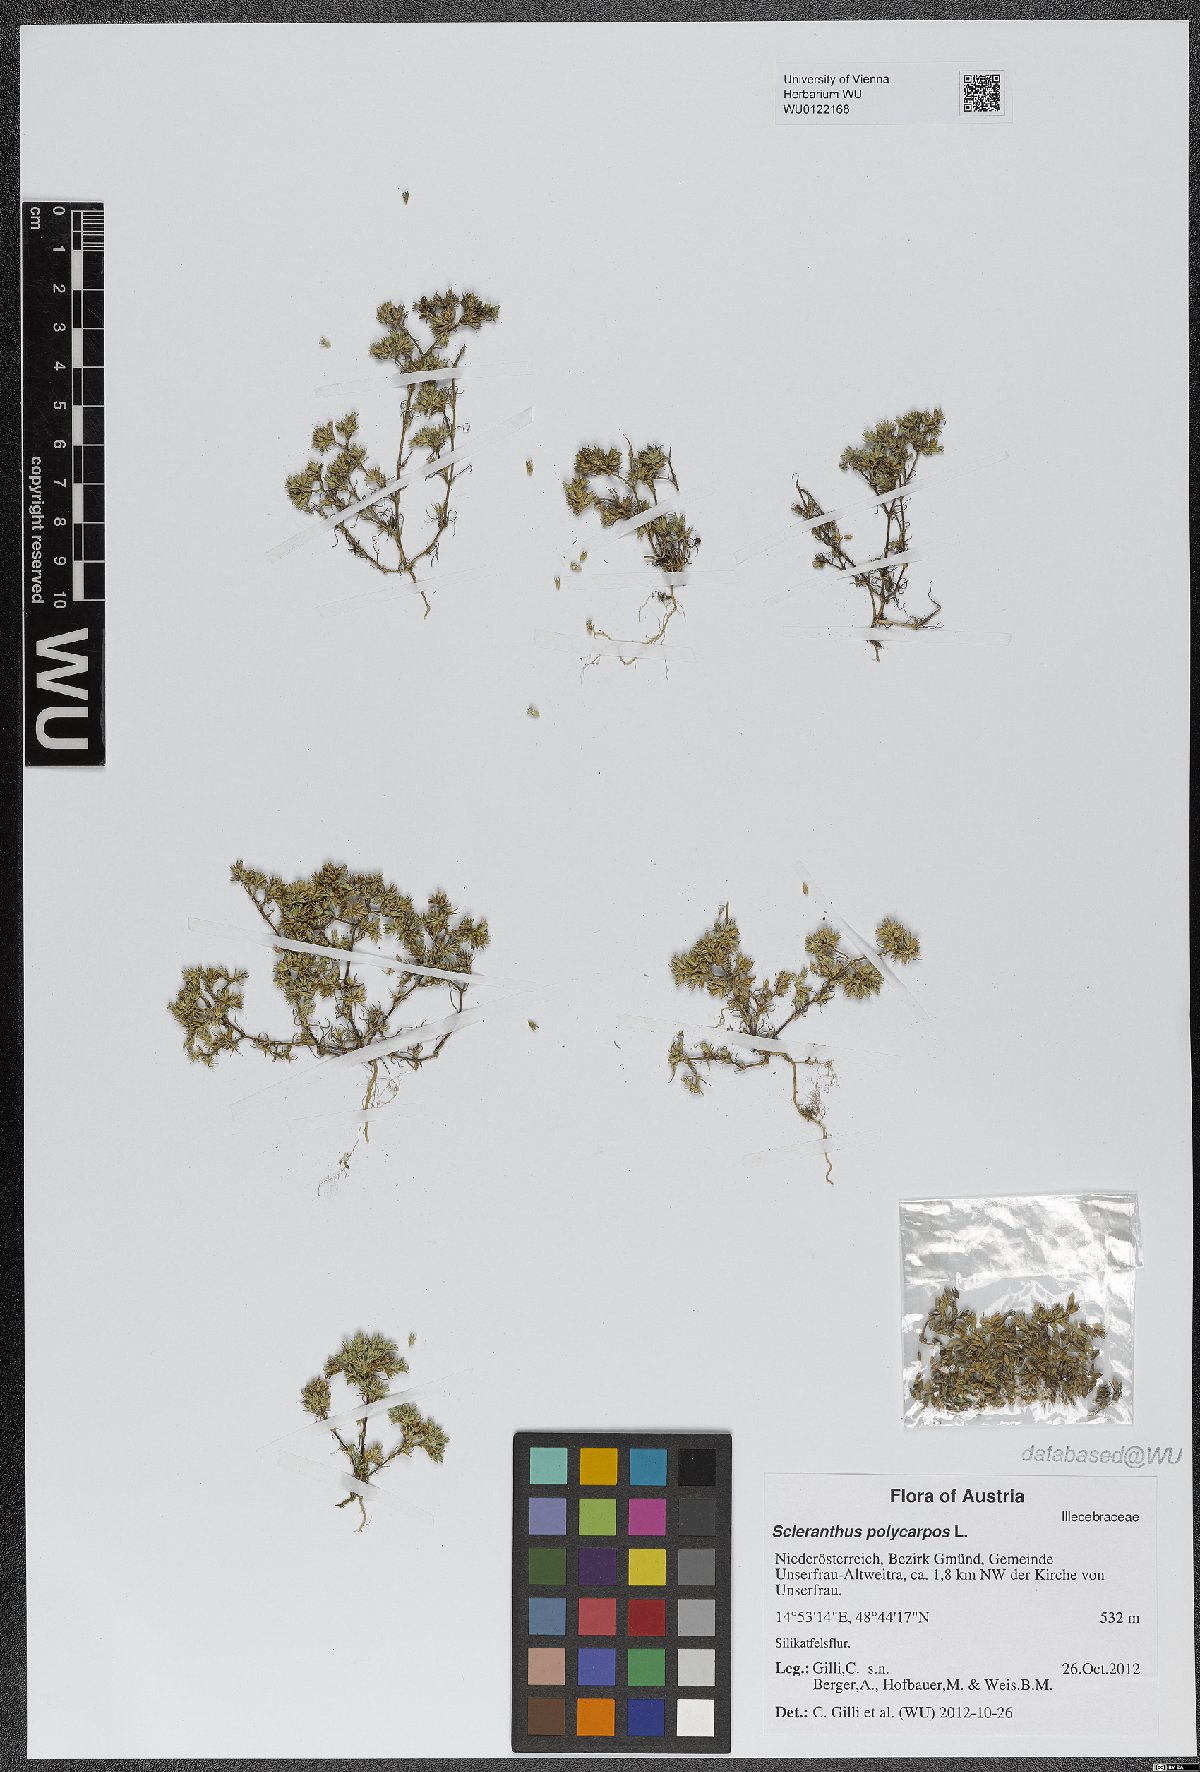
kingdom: Plantae
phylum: Tracheophyta
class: Magnoliopsida
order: Caryophyllales
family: Caryophyllaceae
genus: Scleranthus
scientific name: Scleranthus annuus
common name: Annual knawel
